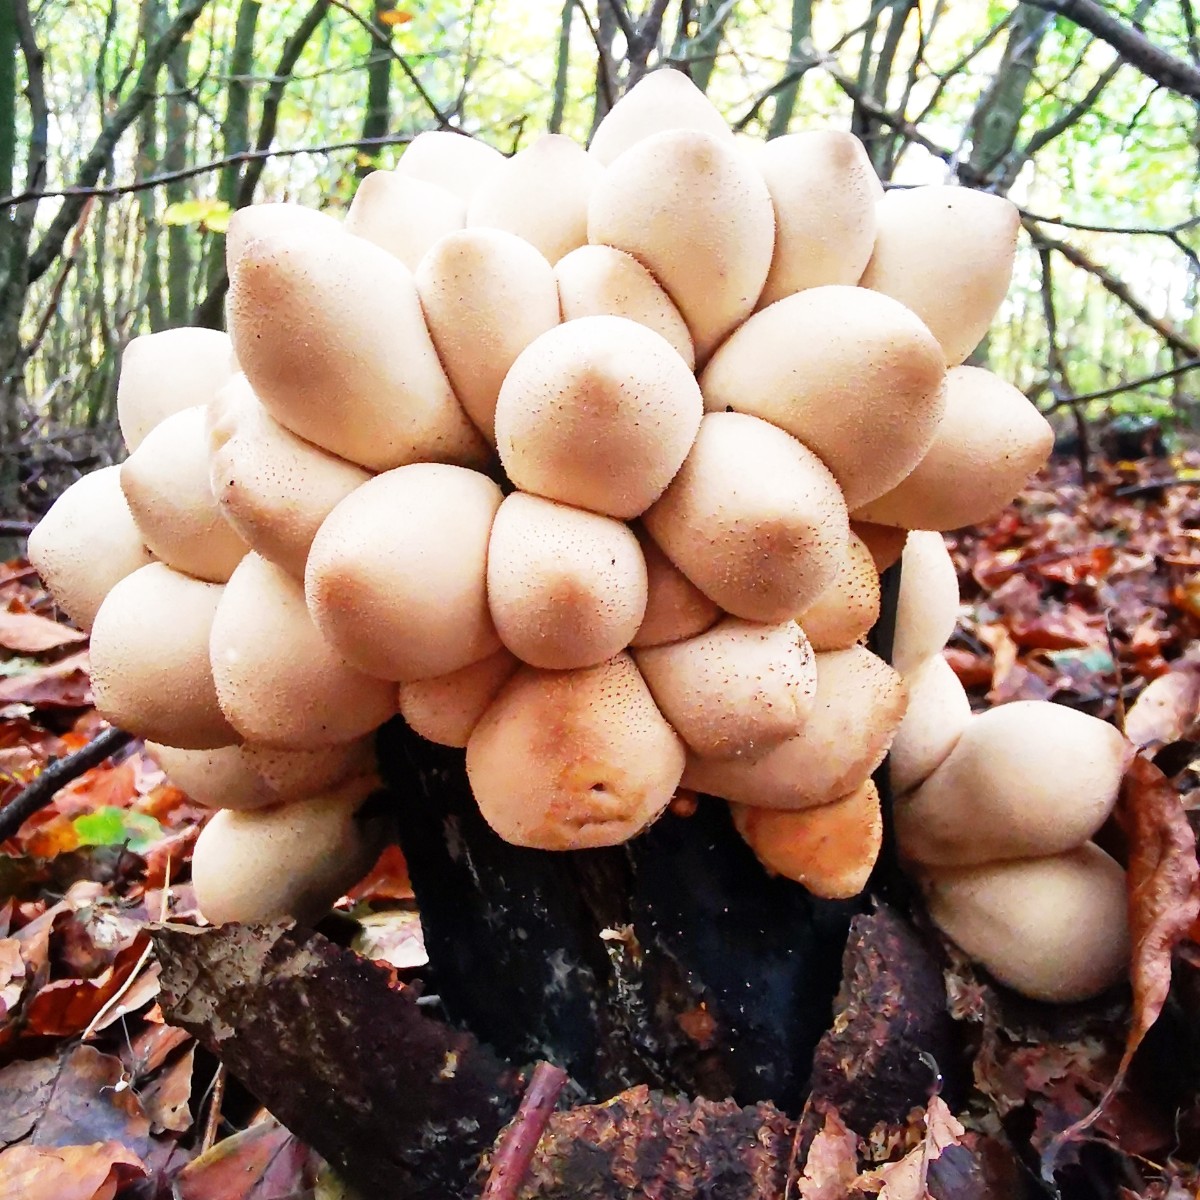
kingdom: Fungi
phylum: Basidiomycota
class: Agaricomycetes
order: Agaricales
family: Lycoperdaceae
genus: Apioperdon
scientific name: Apioperdon pyriforme
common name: pære-støvbold
